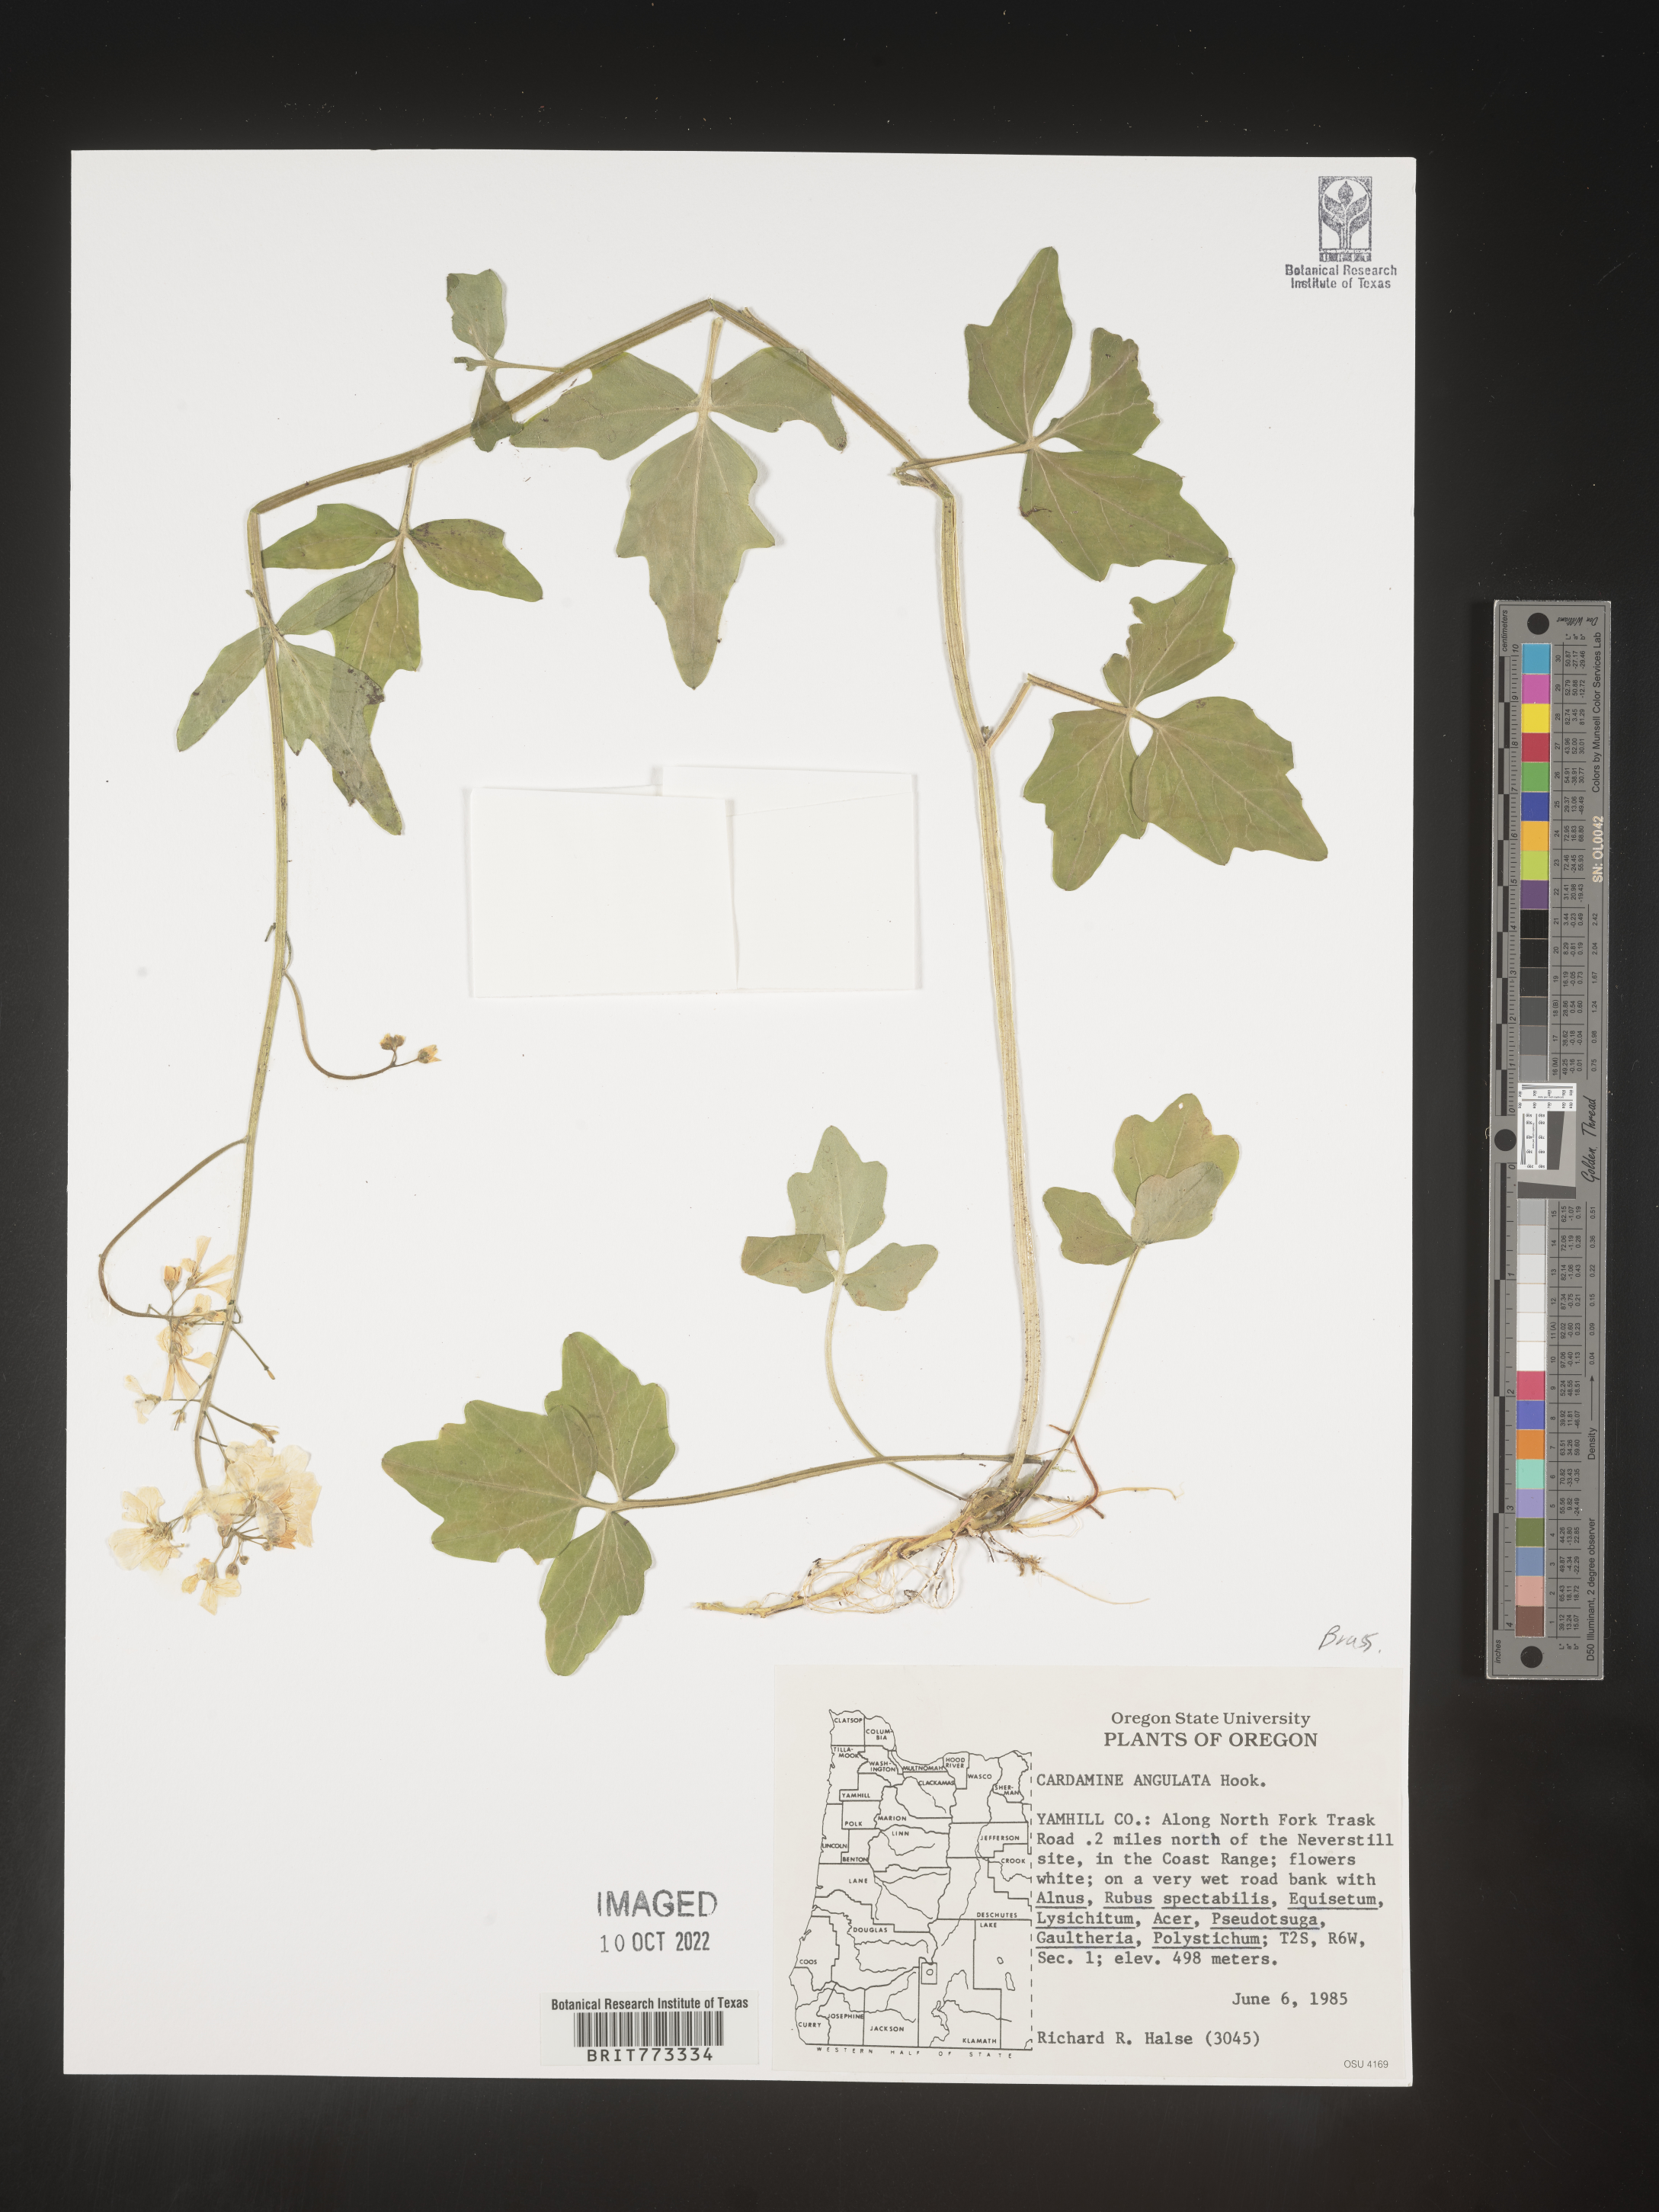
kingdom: Plantae
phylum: Tracheophyta
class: Magnoliopsida
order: Brassicales
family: Brassicaceae
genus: Cardamine
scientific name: Cardamine
